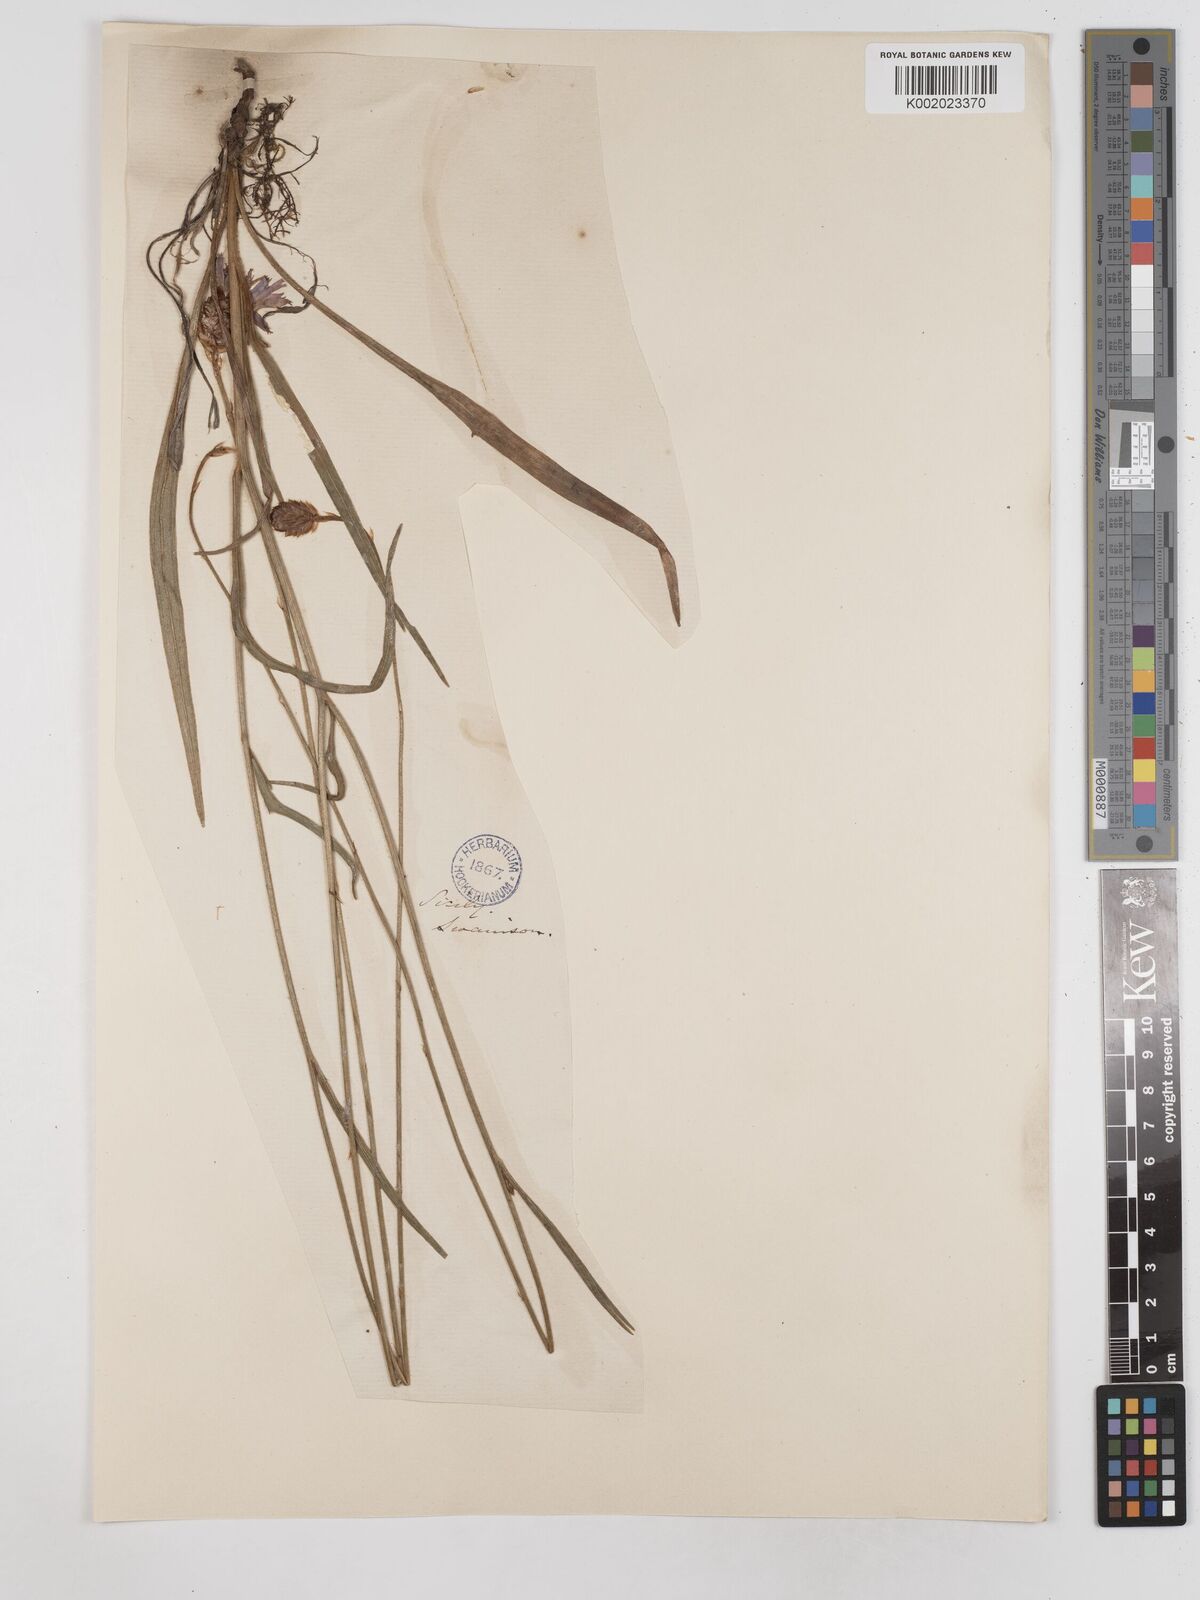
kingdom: Plantae
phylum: Tracheophyta
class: Magnoliopsida
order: Asterales
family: Asteraceae
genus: Catananche
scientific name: Catananche lutea
